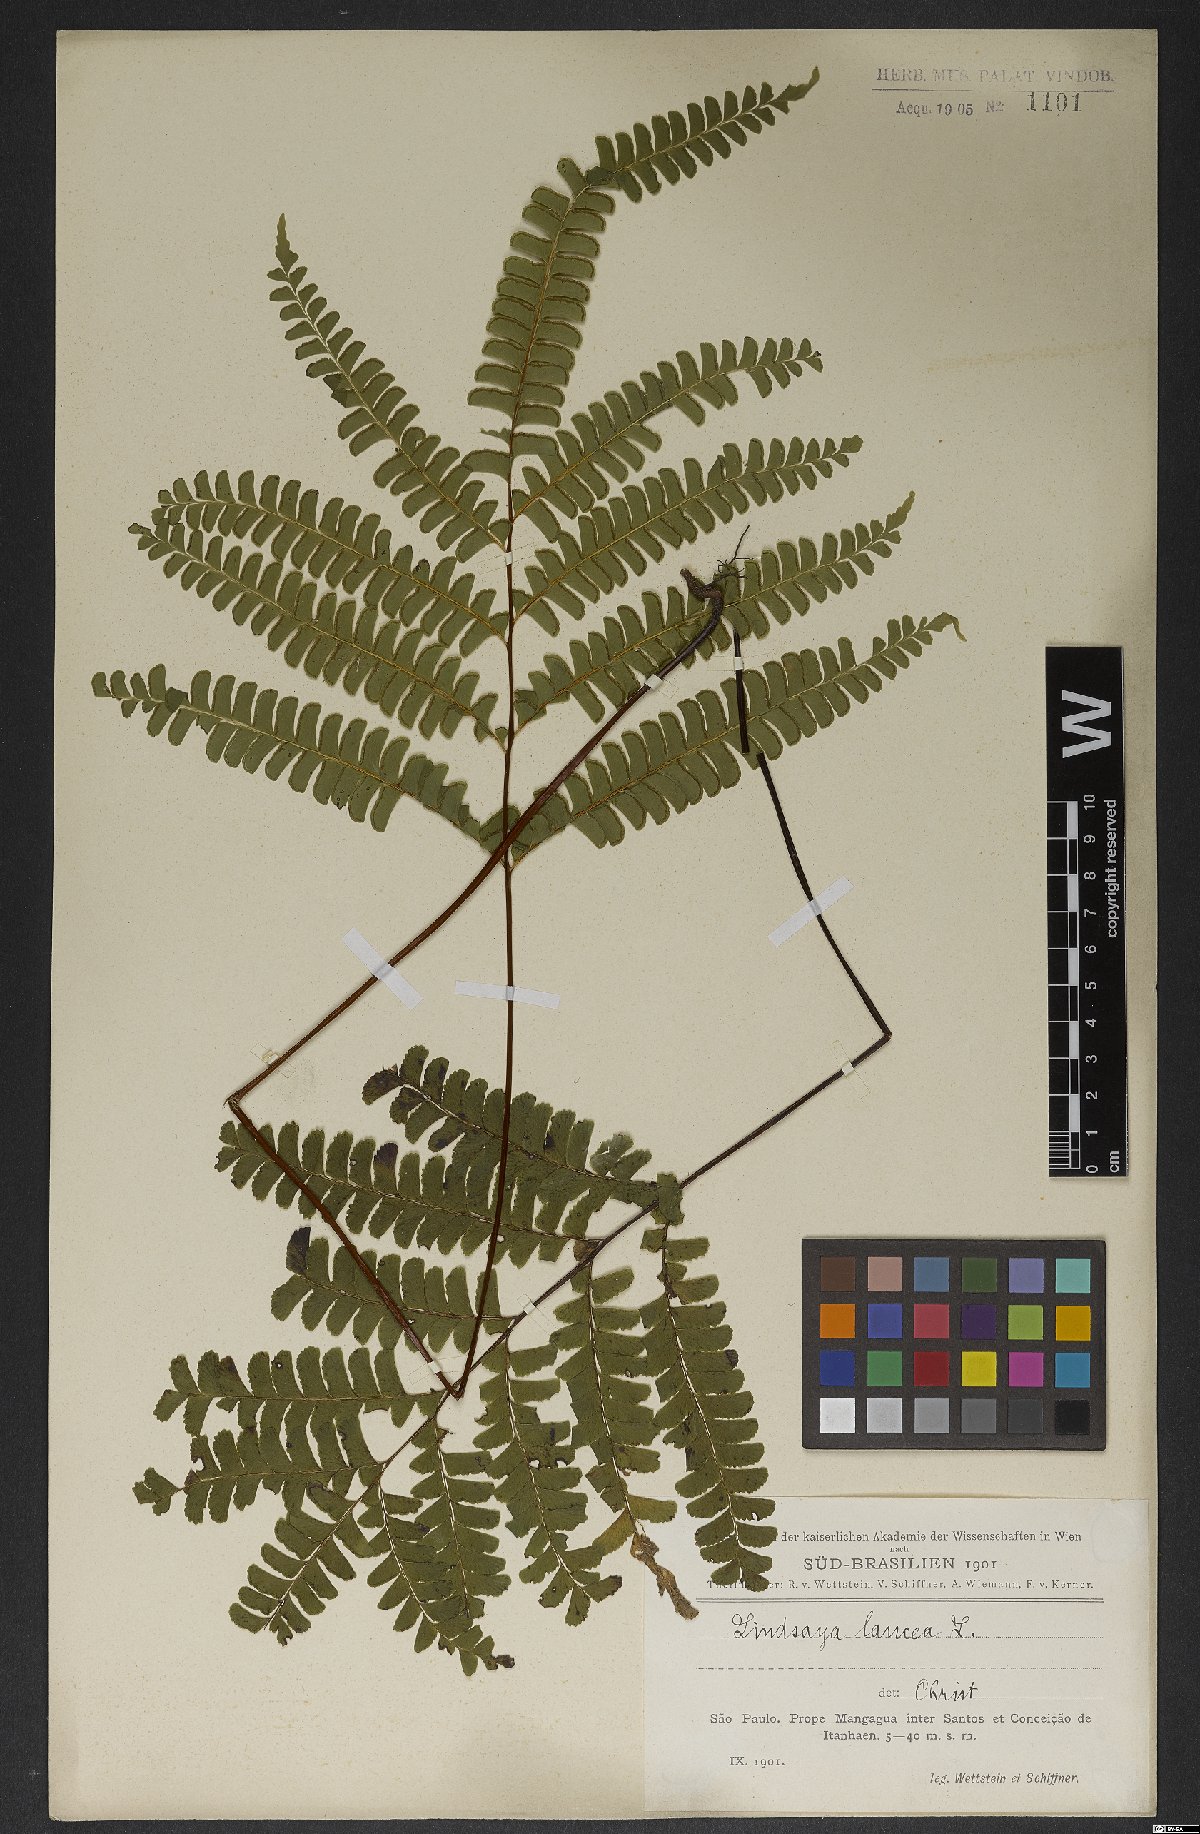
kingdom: Plantae
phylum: Tracheophyta
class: Polypodiopsida
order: Polypodiales
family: Lindsaeaceae
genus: Lindsaea
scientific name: Lindsaea lancea
